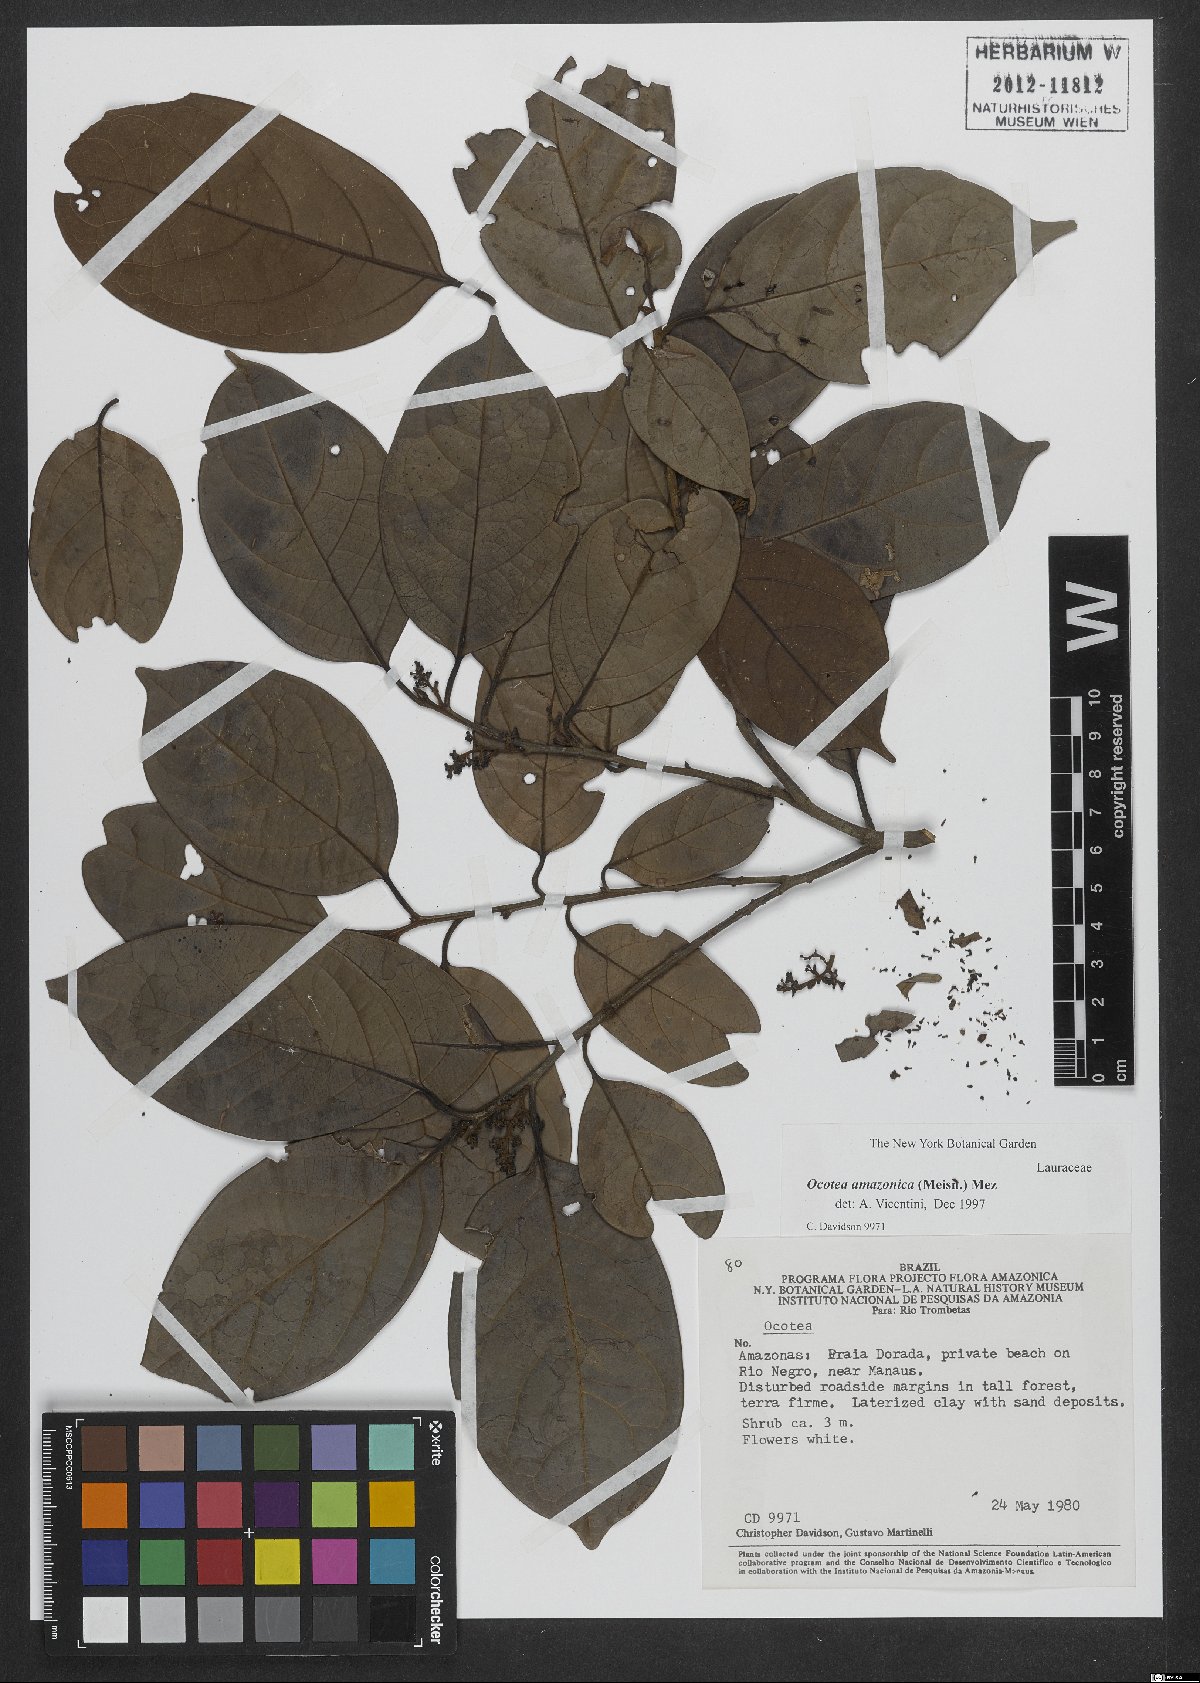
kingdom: Plantae
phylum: Tracheophyta
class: Magnoliopsida
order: Laurales
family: Lauraceae
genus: Ocotea
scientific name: Ocotea amazonica
